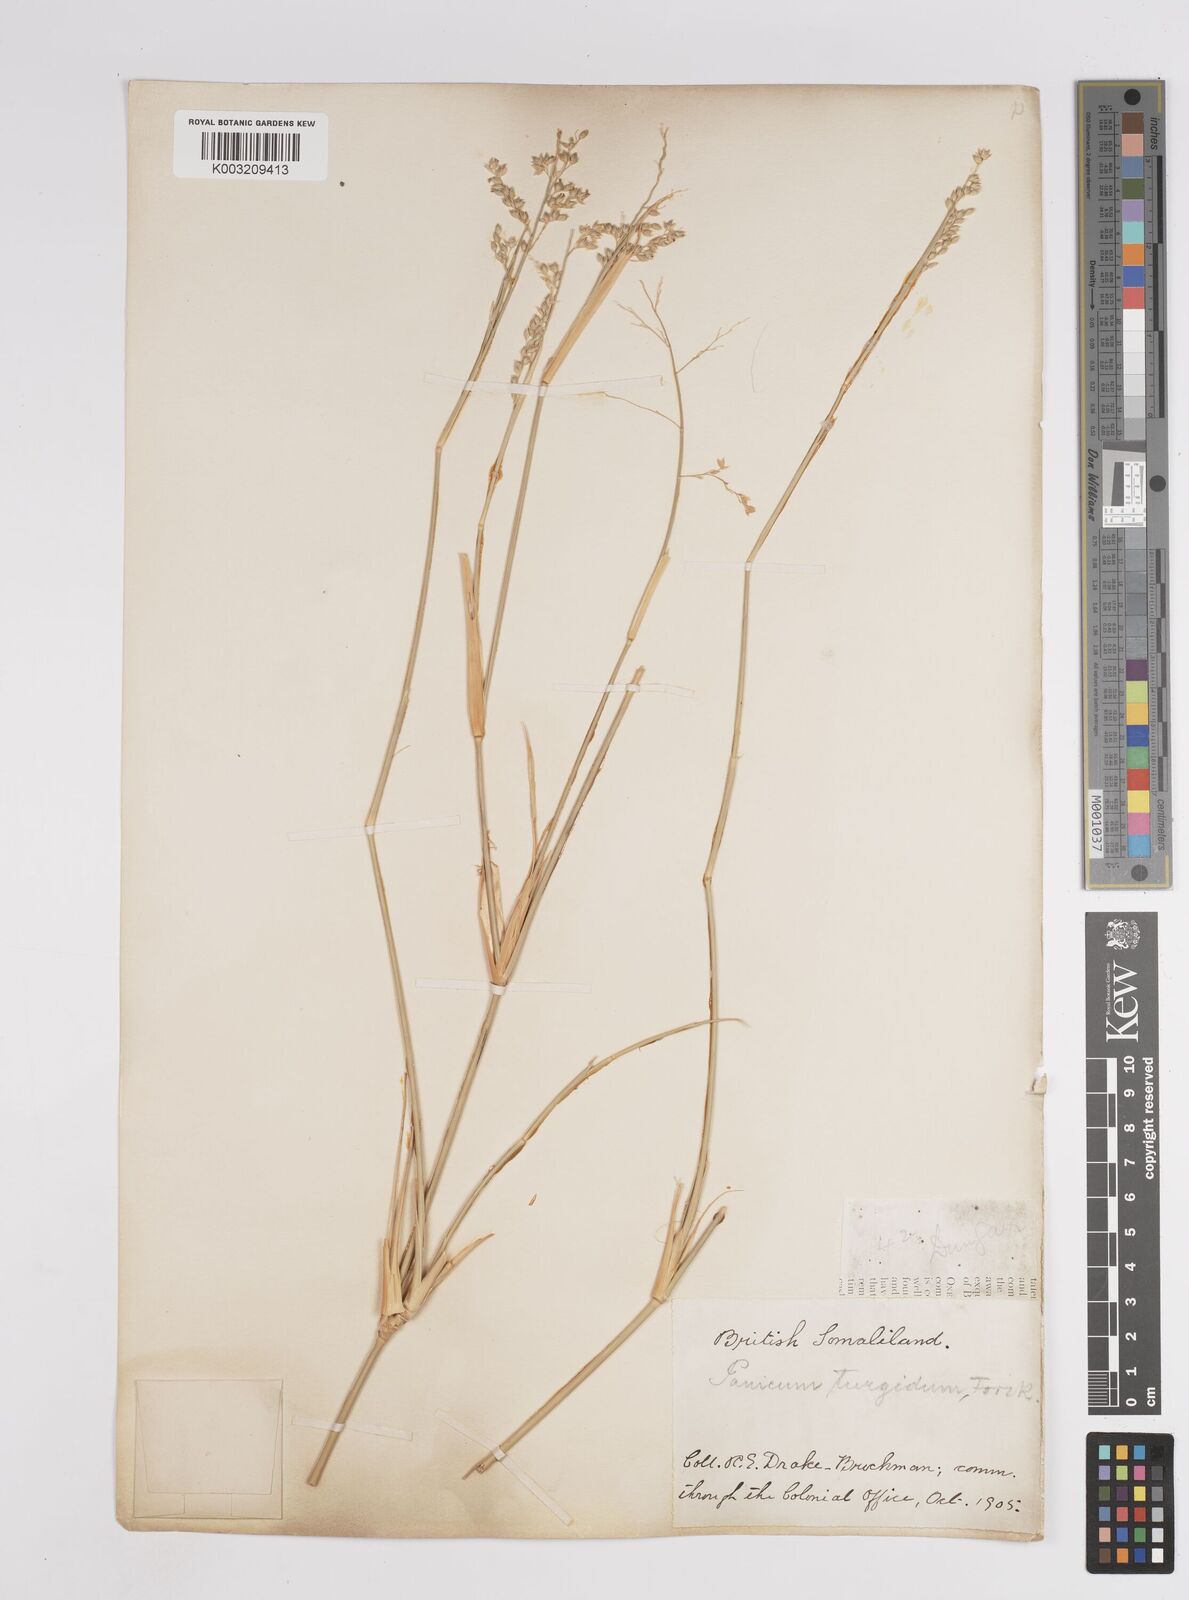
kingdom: Plantae
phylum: Tracheophyta
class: Liliopsida
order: Poales
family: Poaceae
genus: Panicum
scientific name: Panicum turgidum
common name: Desert grass
